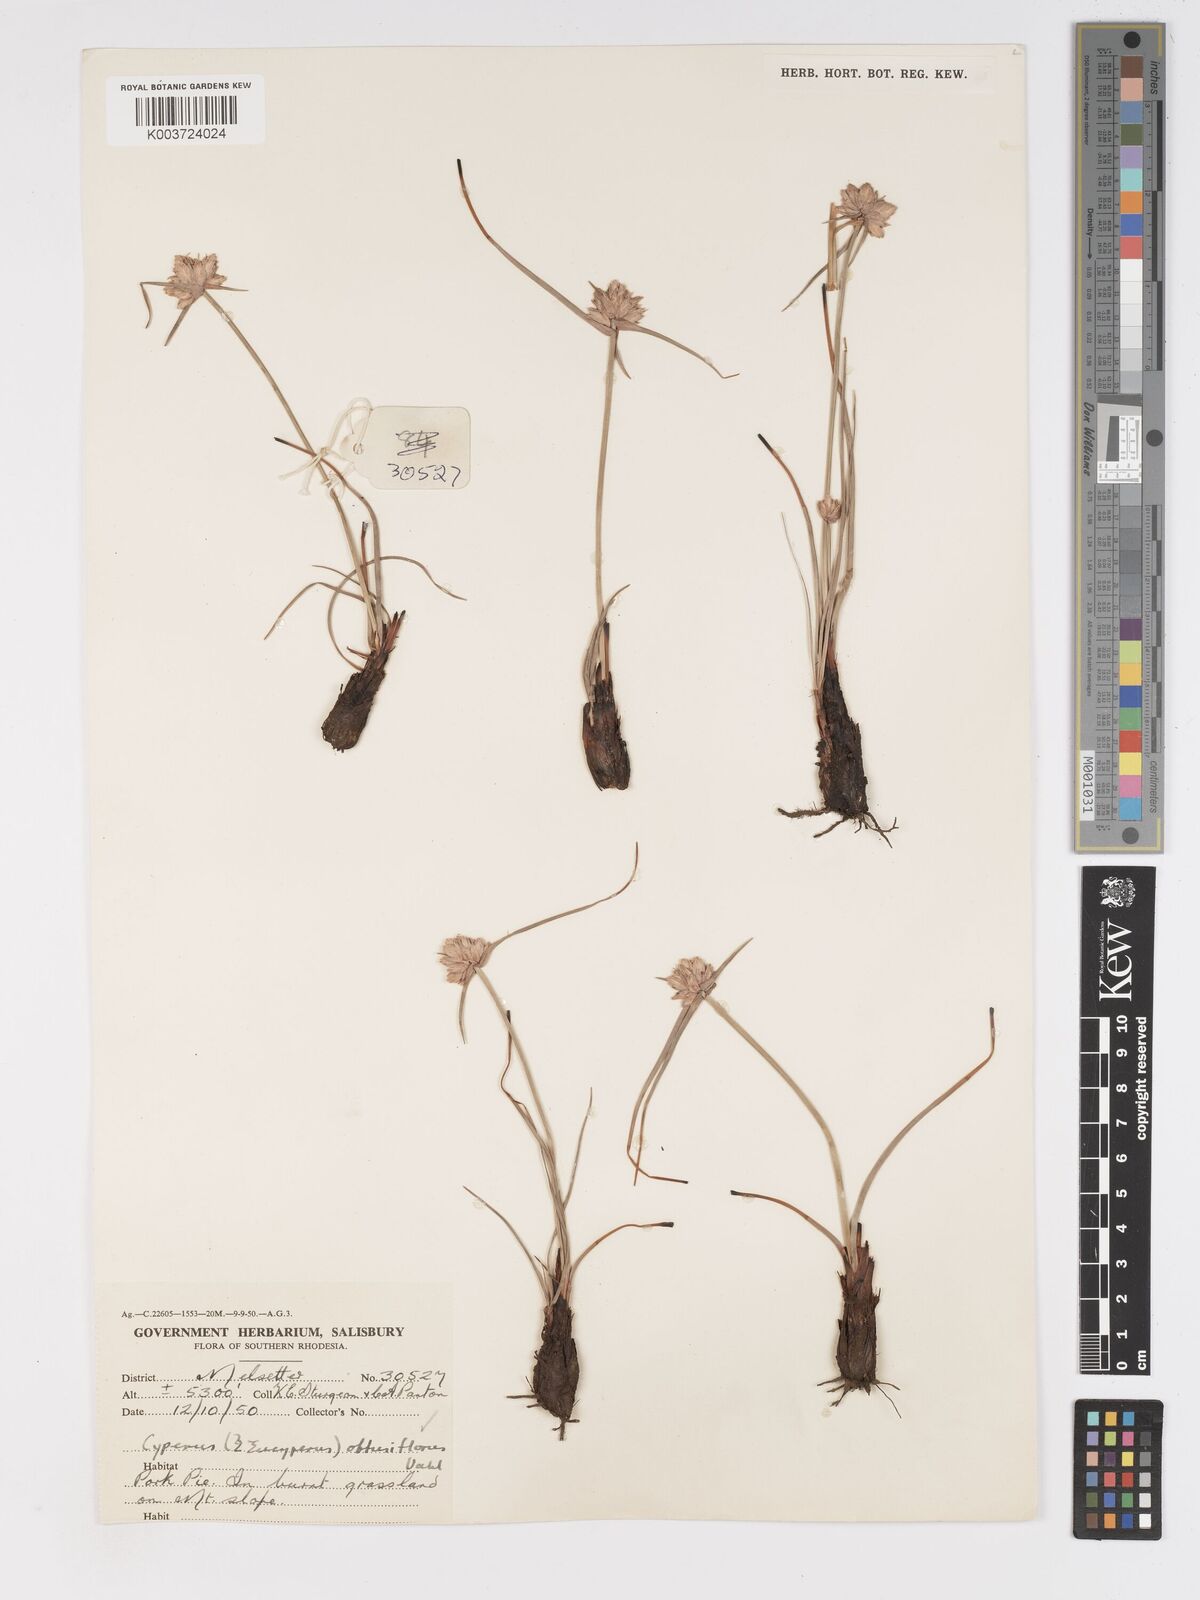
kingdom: Plantae
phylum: Tracheophyta
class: Liliopsida
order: Poales
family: Cyperaceae
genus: Cyperus
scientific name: Cyperus niveus
